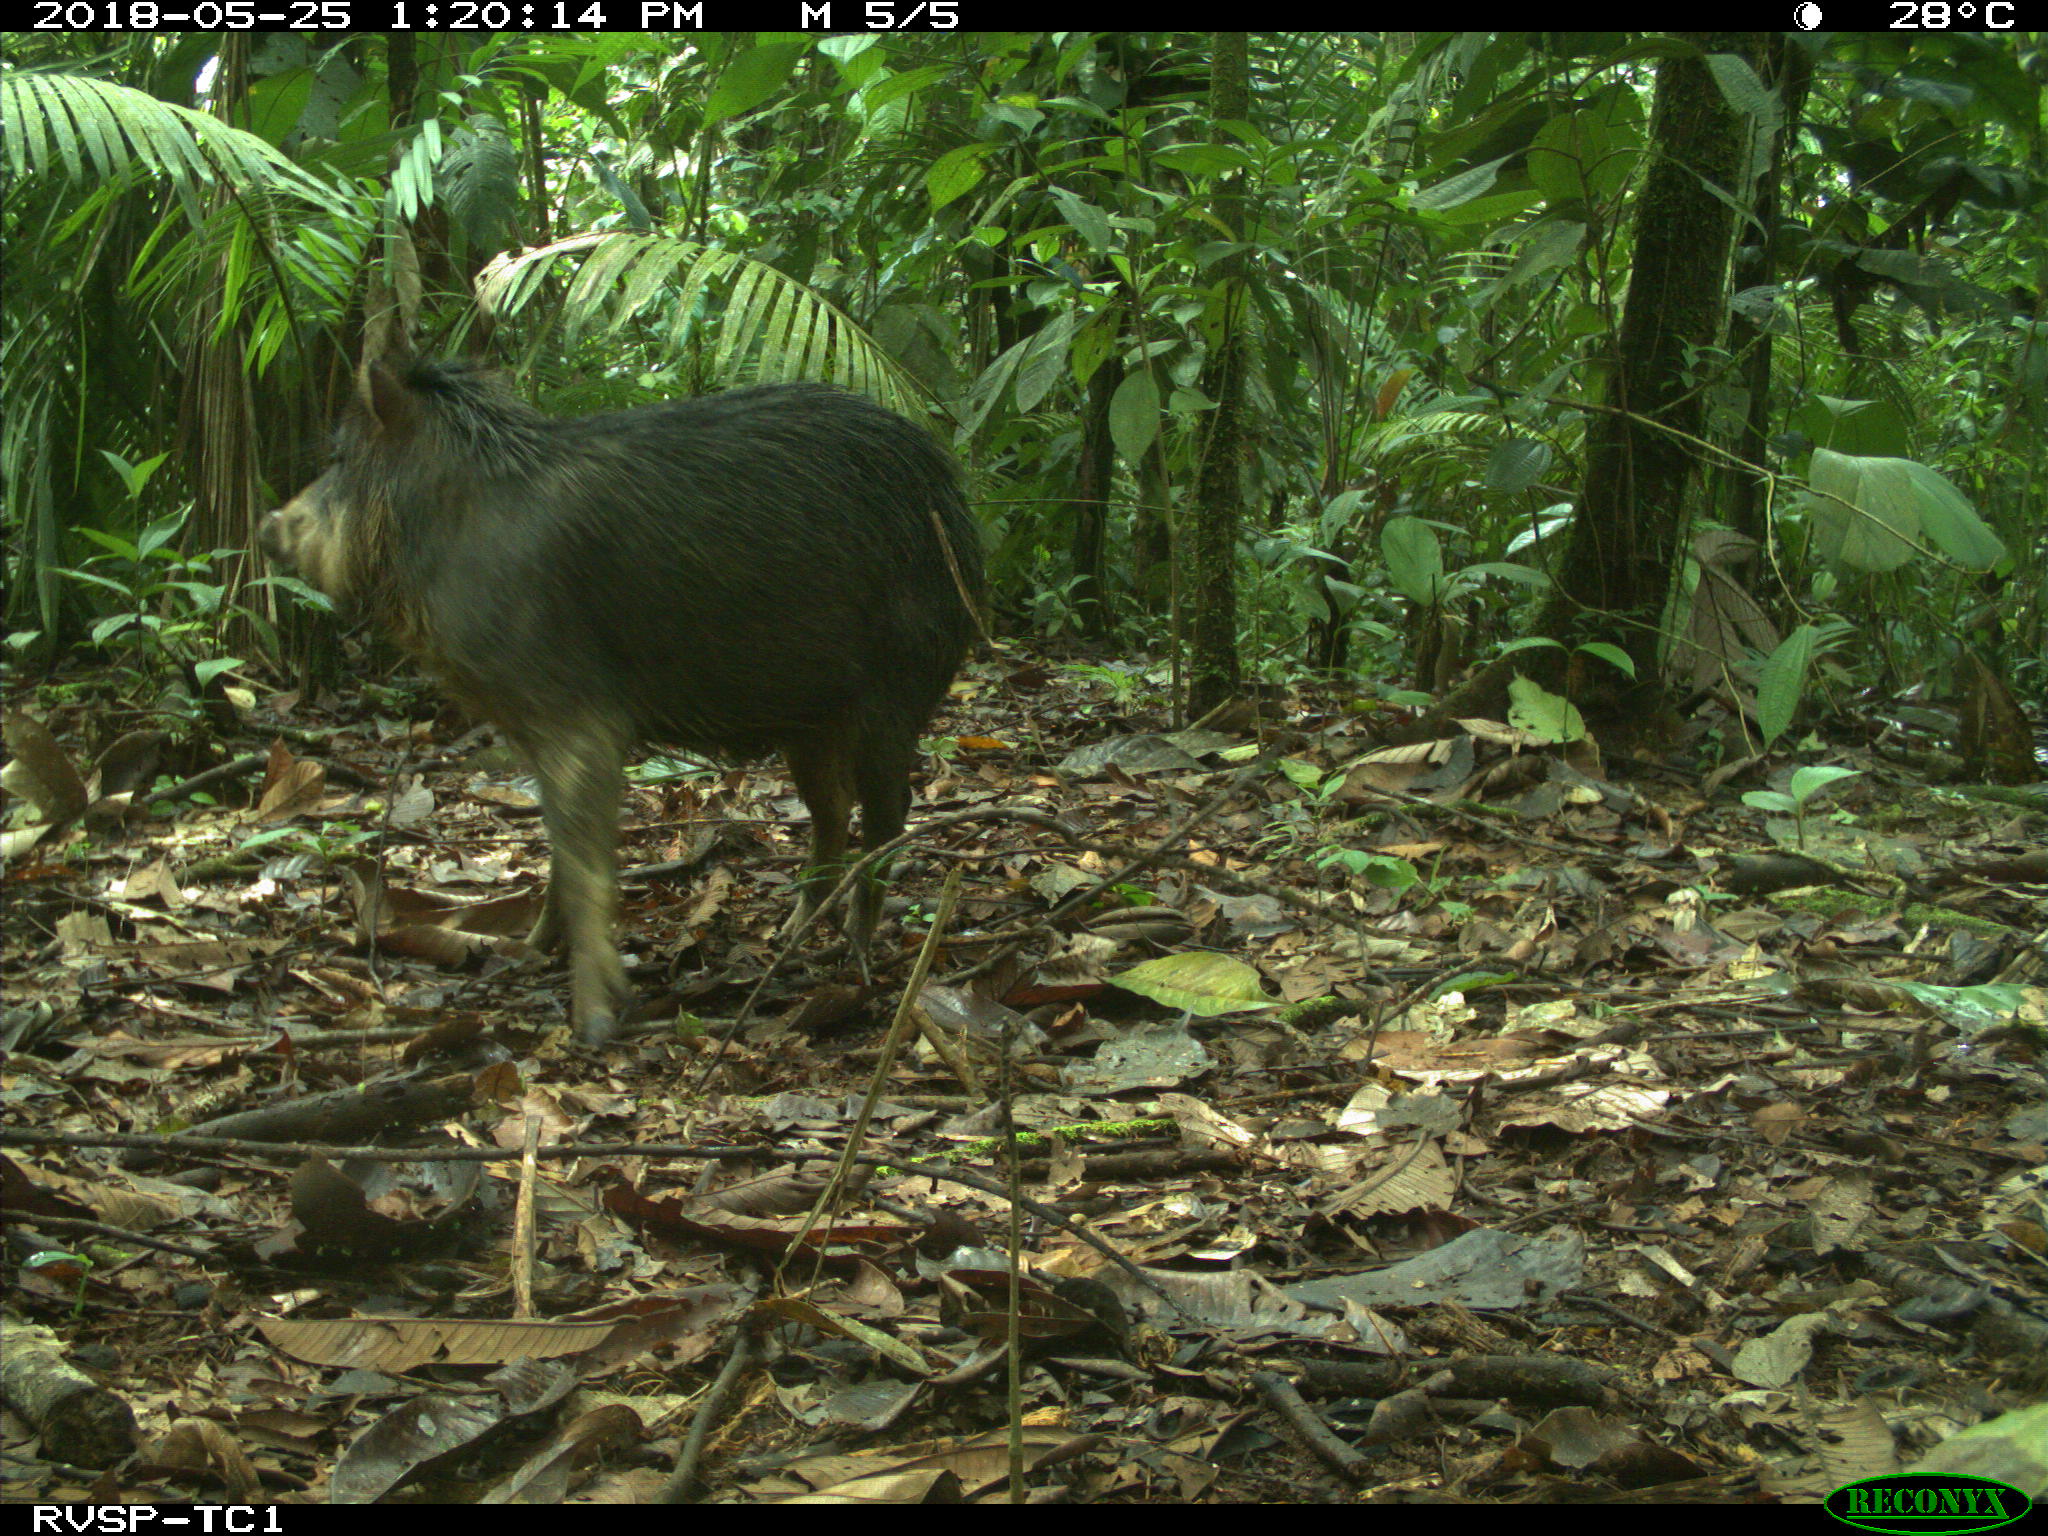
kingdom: Animalia
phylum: Chordata
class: Mammalia
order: Artiodactyla
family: Tayassuidae
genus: Tayassu
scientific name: Tayassu pecari
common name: White-lipped peccary
